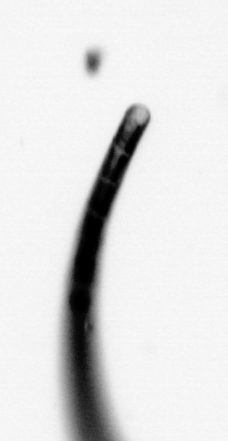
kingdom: Chromista
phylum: Ochrophyta
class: Bacillariophyceae
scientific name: Bacillariophyceae
